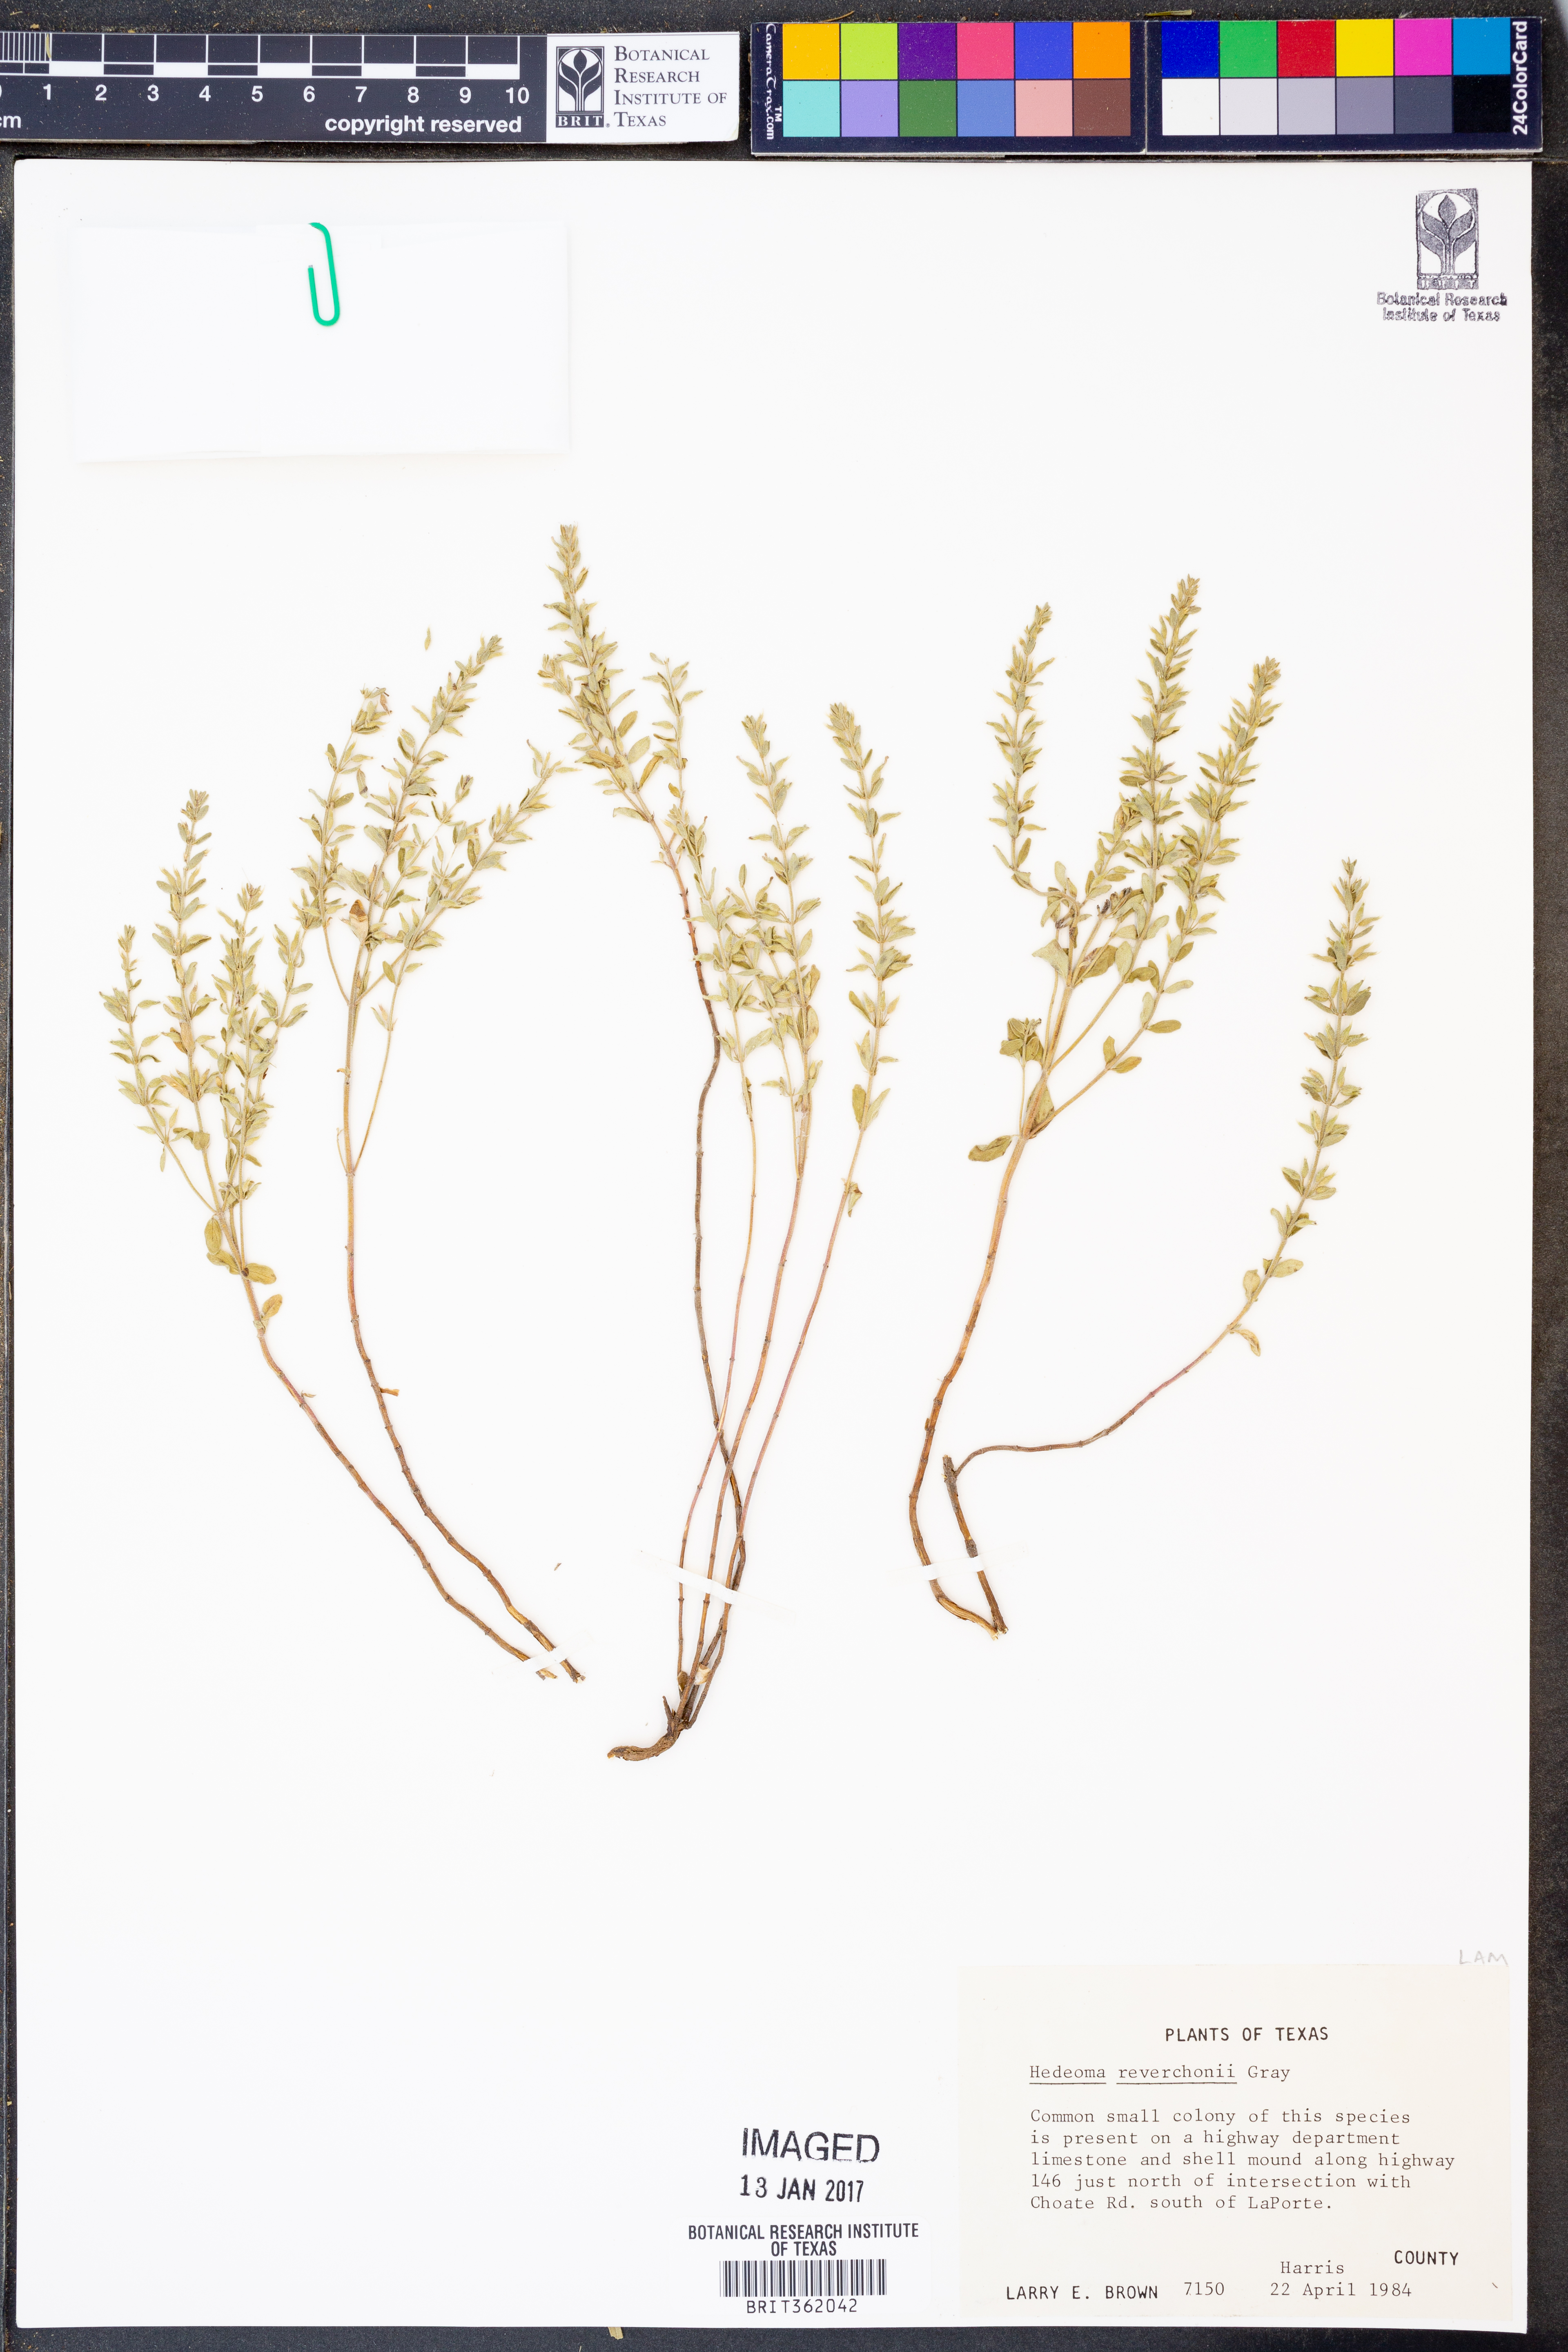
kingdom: Plantae
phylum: Tracheophyta
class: Magnoliopsida
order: Lamiales
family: Lamiaceae
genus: Hedeoma
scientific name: Hedeoma reverchonii
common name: Reverchon's false penny-royal
